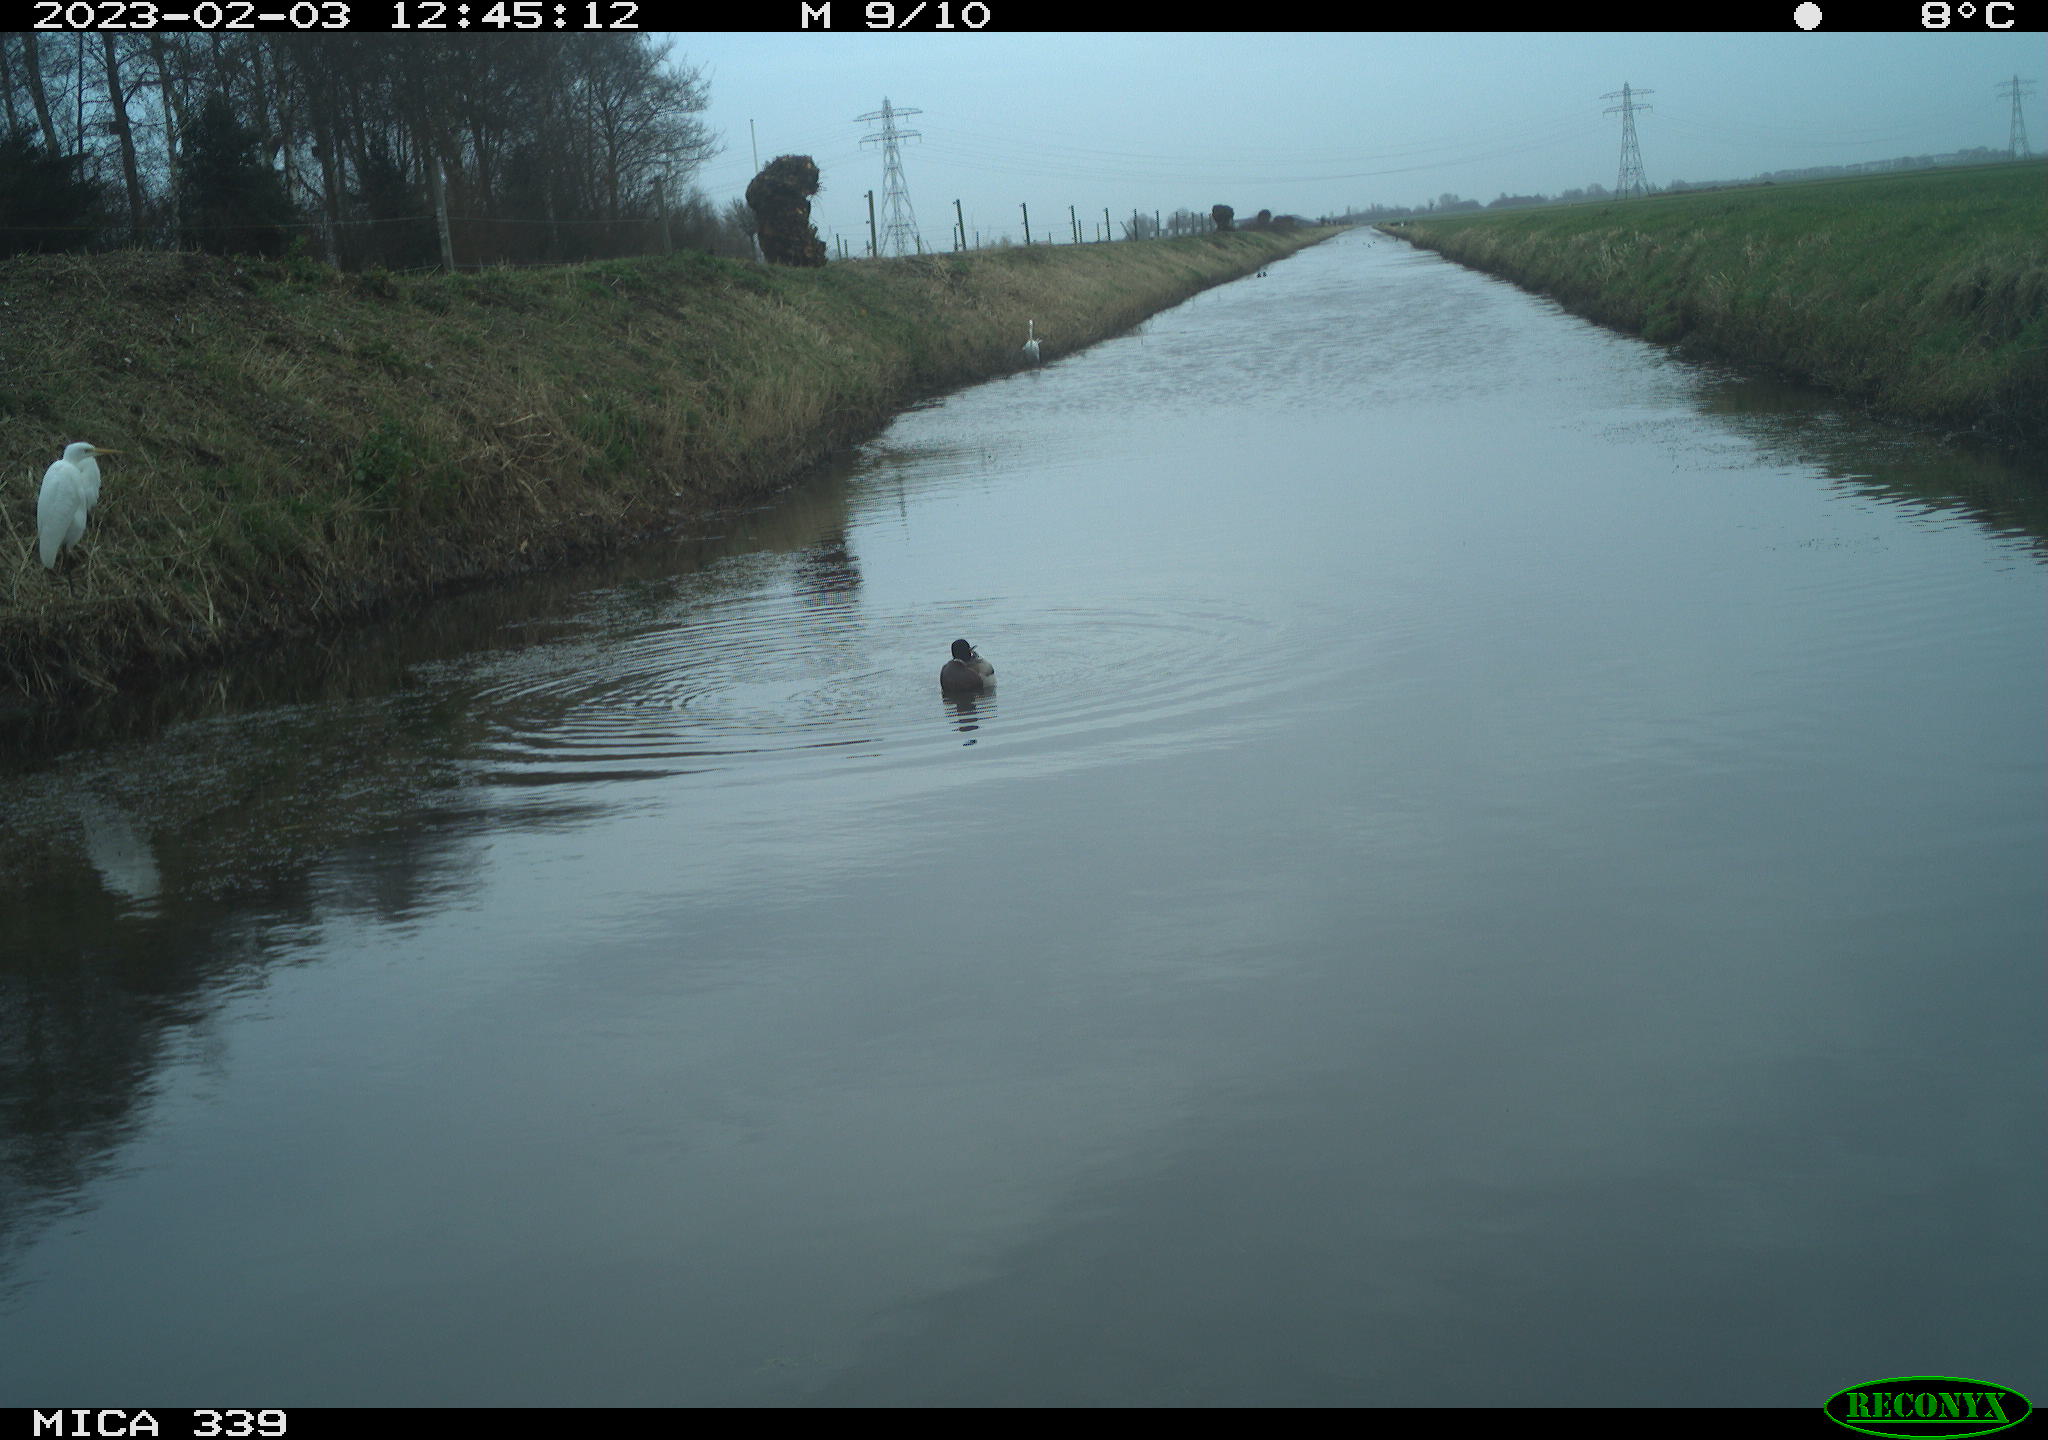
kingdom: Animalia
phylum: Chordata
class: Aves
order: Anseriformes
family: Anatidae
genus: Anas
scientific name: Anas
